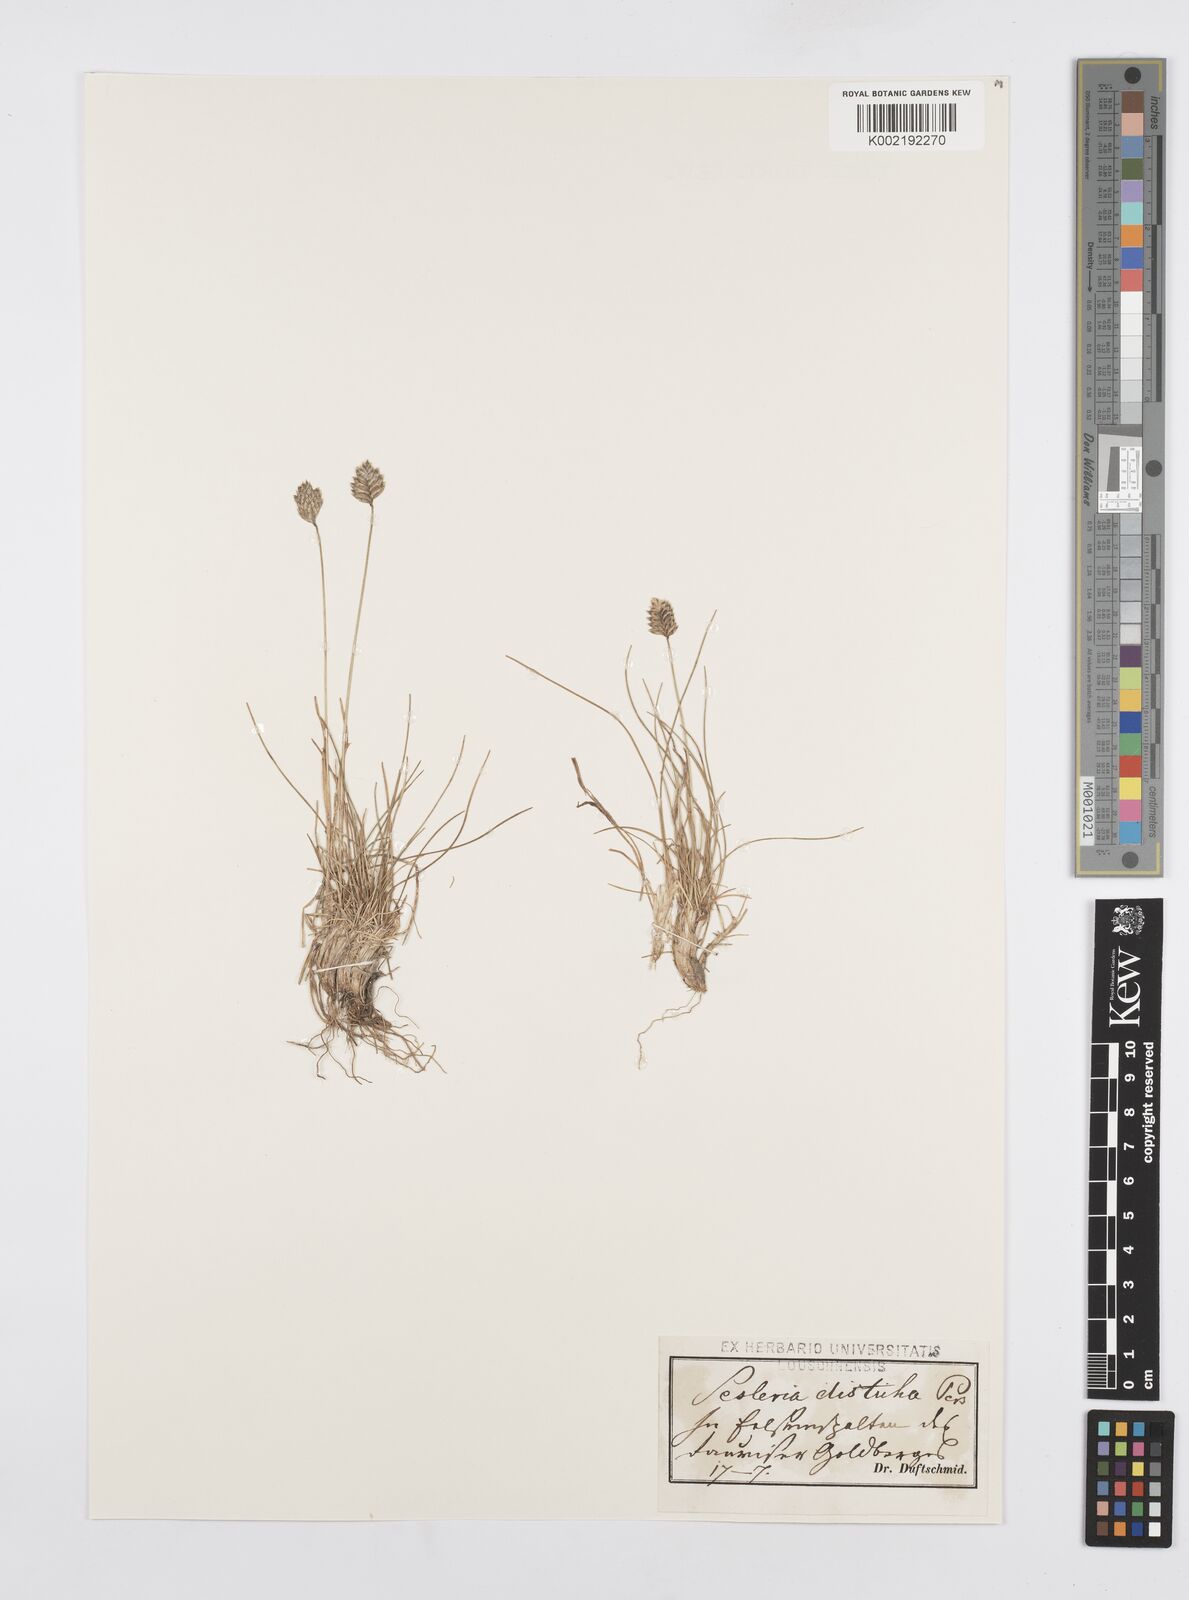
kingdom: Plantae
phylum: Tracheophyta
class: Liliopsida
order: Poales
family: Poaceae
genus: Oreochloa
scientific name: Oreochloa disticha
